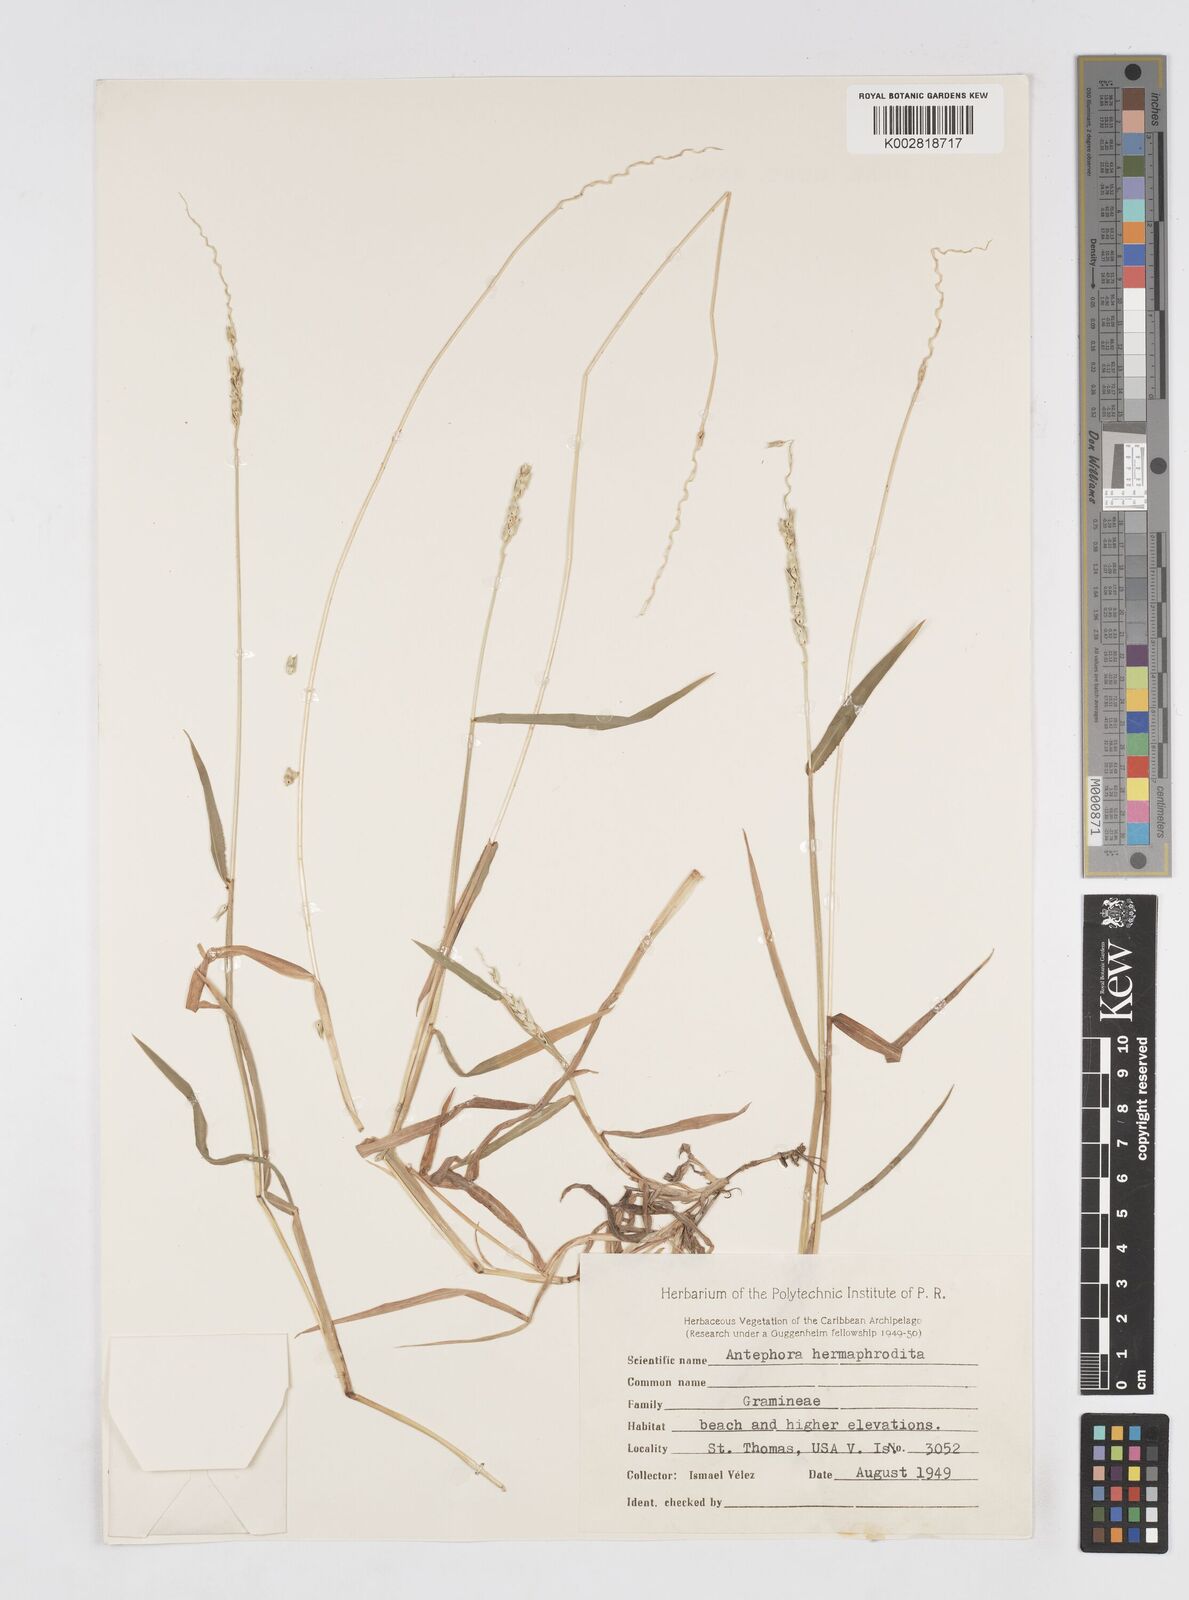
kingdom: Plantae
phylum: Tracheophyta
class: Liliopsida
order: Poales
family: Poaceae
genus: Anthephora
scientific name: Anthephora hermaphrodita
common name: Oldfield grass
